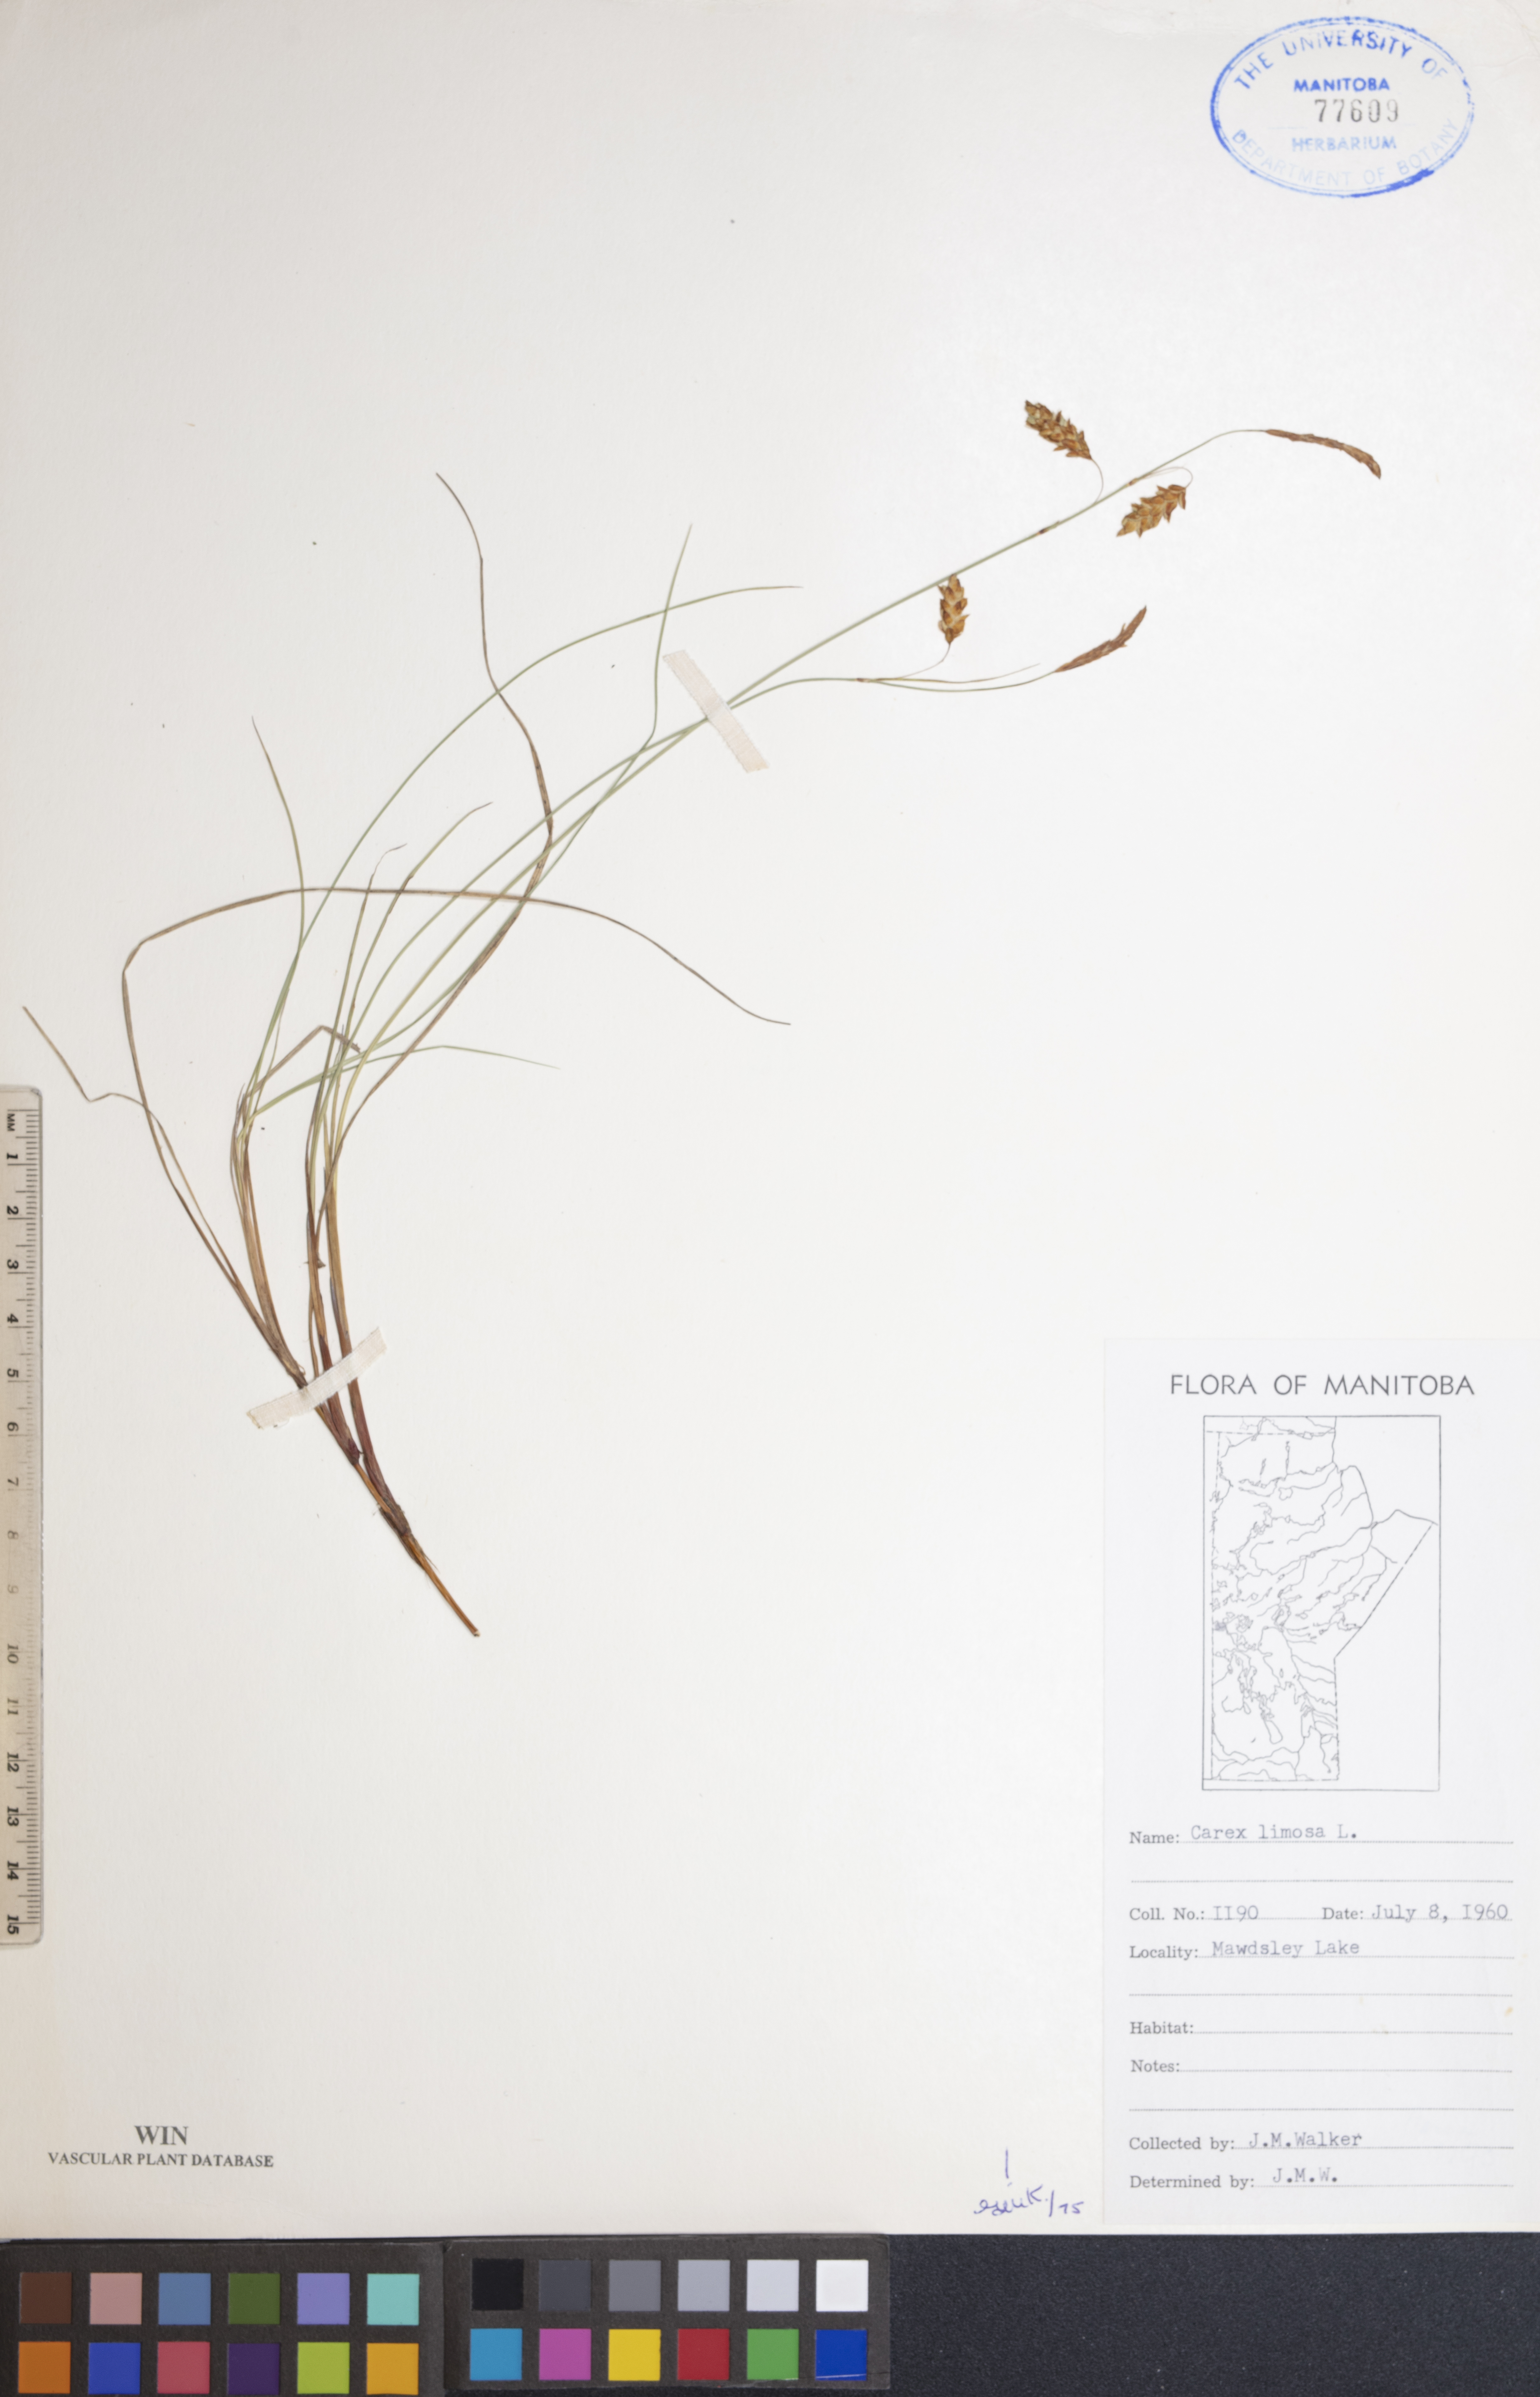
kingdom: Plantae
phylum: Tracheophyta
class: Liliopsida
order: Poales
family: Cyperaceae
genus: Carex
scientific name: Carex limosa
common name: Bog sedge
